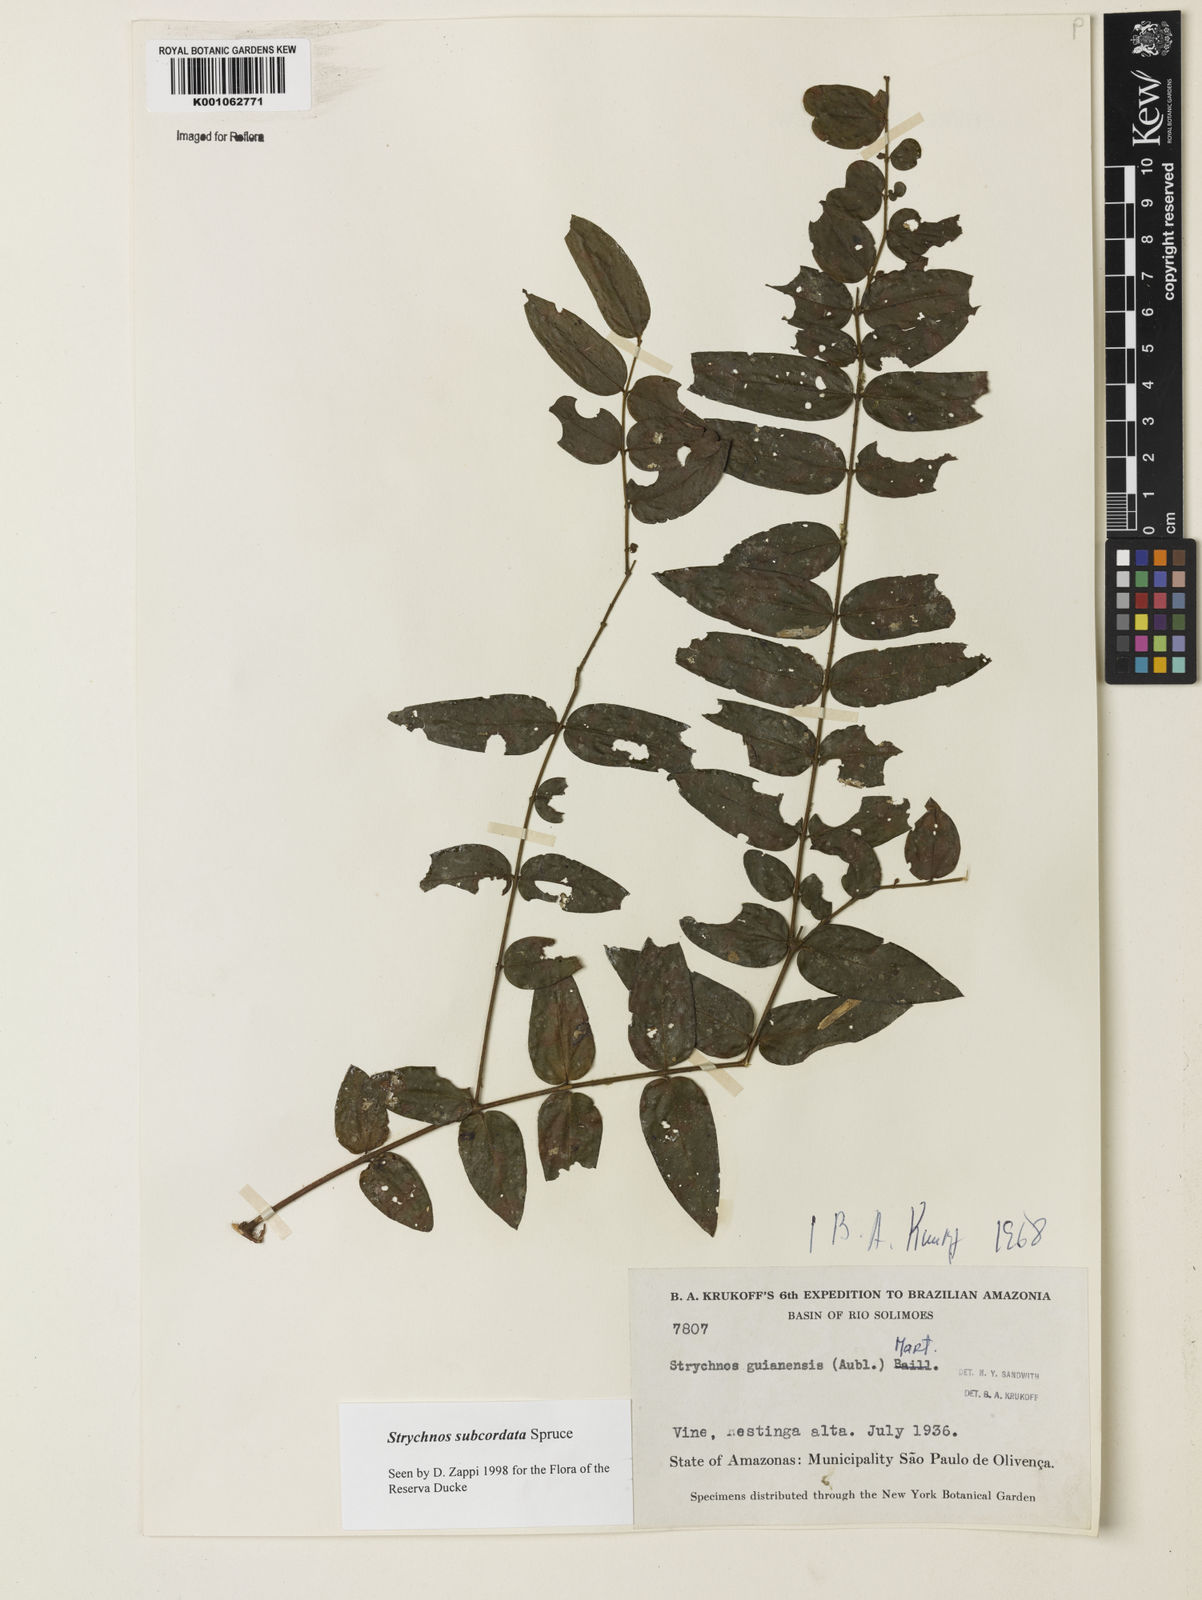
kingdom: Plantae
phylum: Tracheophyta
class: Magnoliopsida
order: Gentianales
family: Loganiaceae
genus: Strychnos
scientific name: Strychnos subcordata
